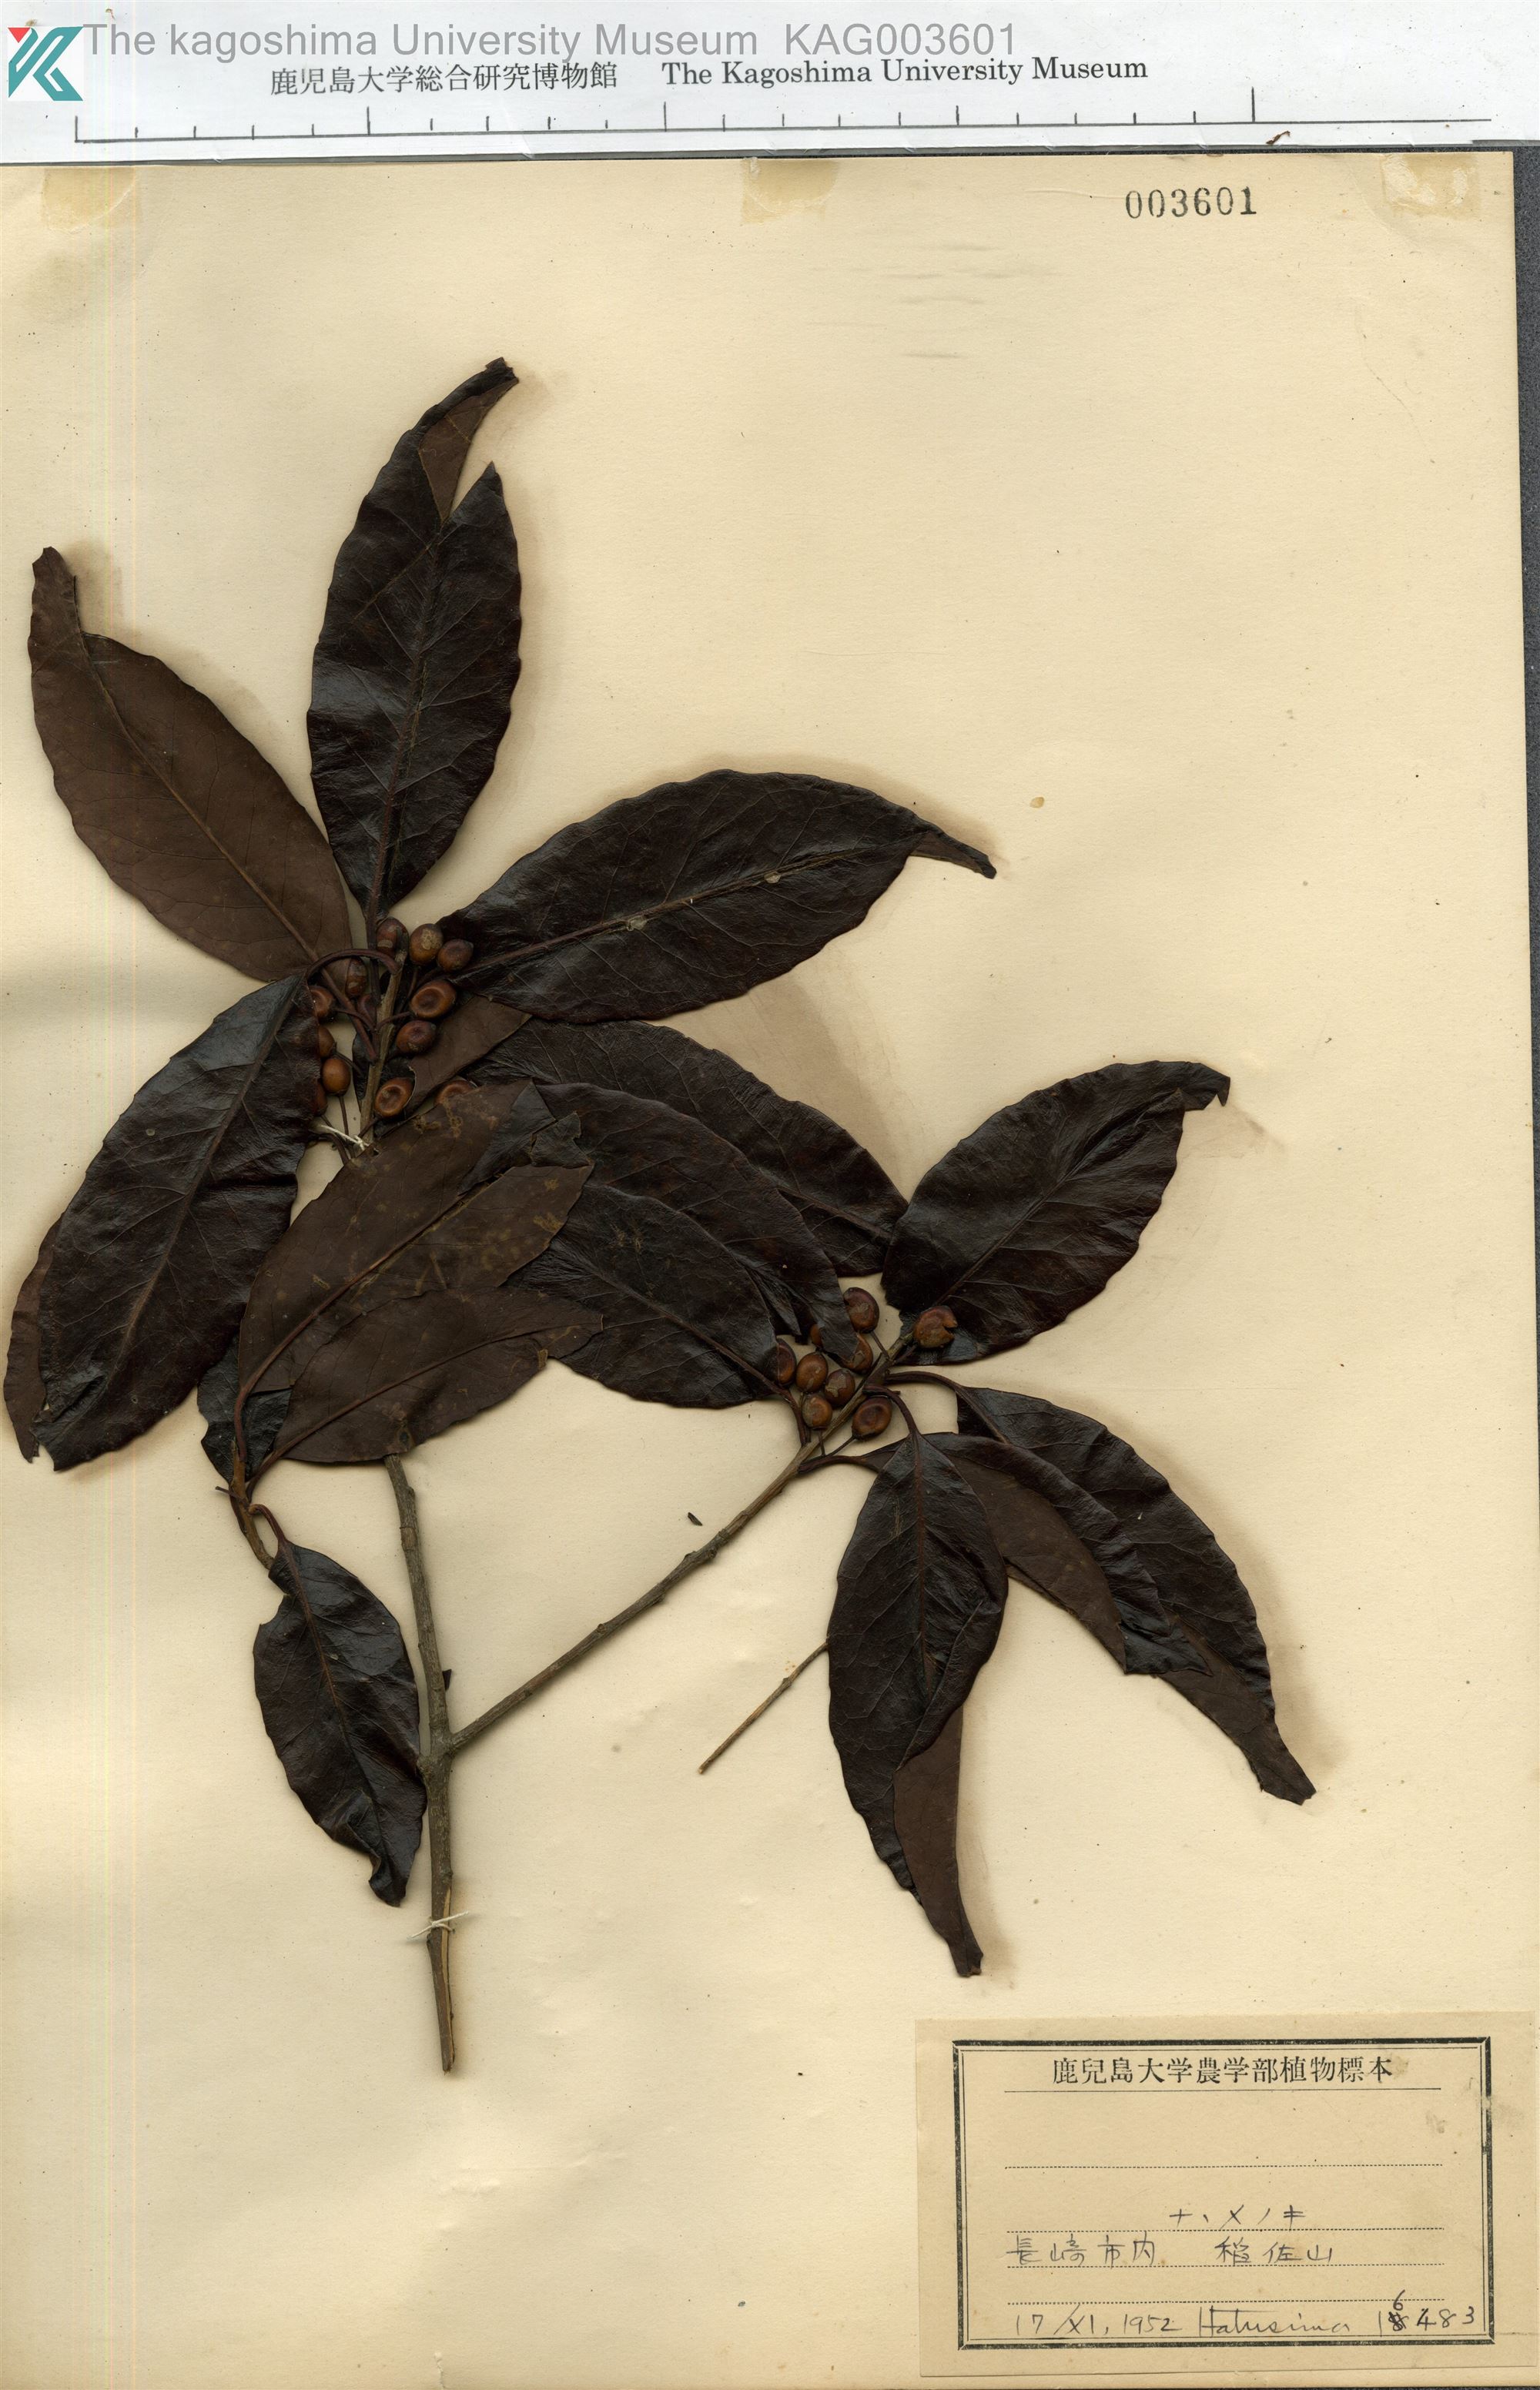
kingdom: Plantae
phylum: Tracheophyta
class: Magnoliopsida
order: Aquifoliales
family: Aquifoliaceae
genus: Ilex
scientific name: Ilex chinensis
